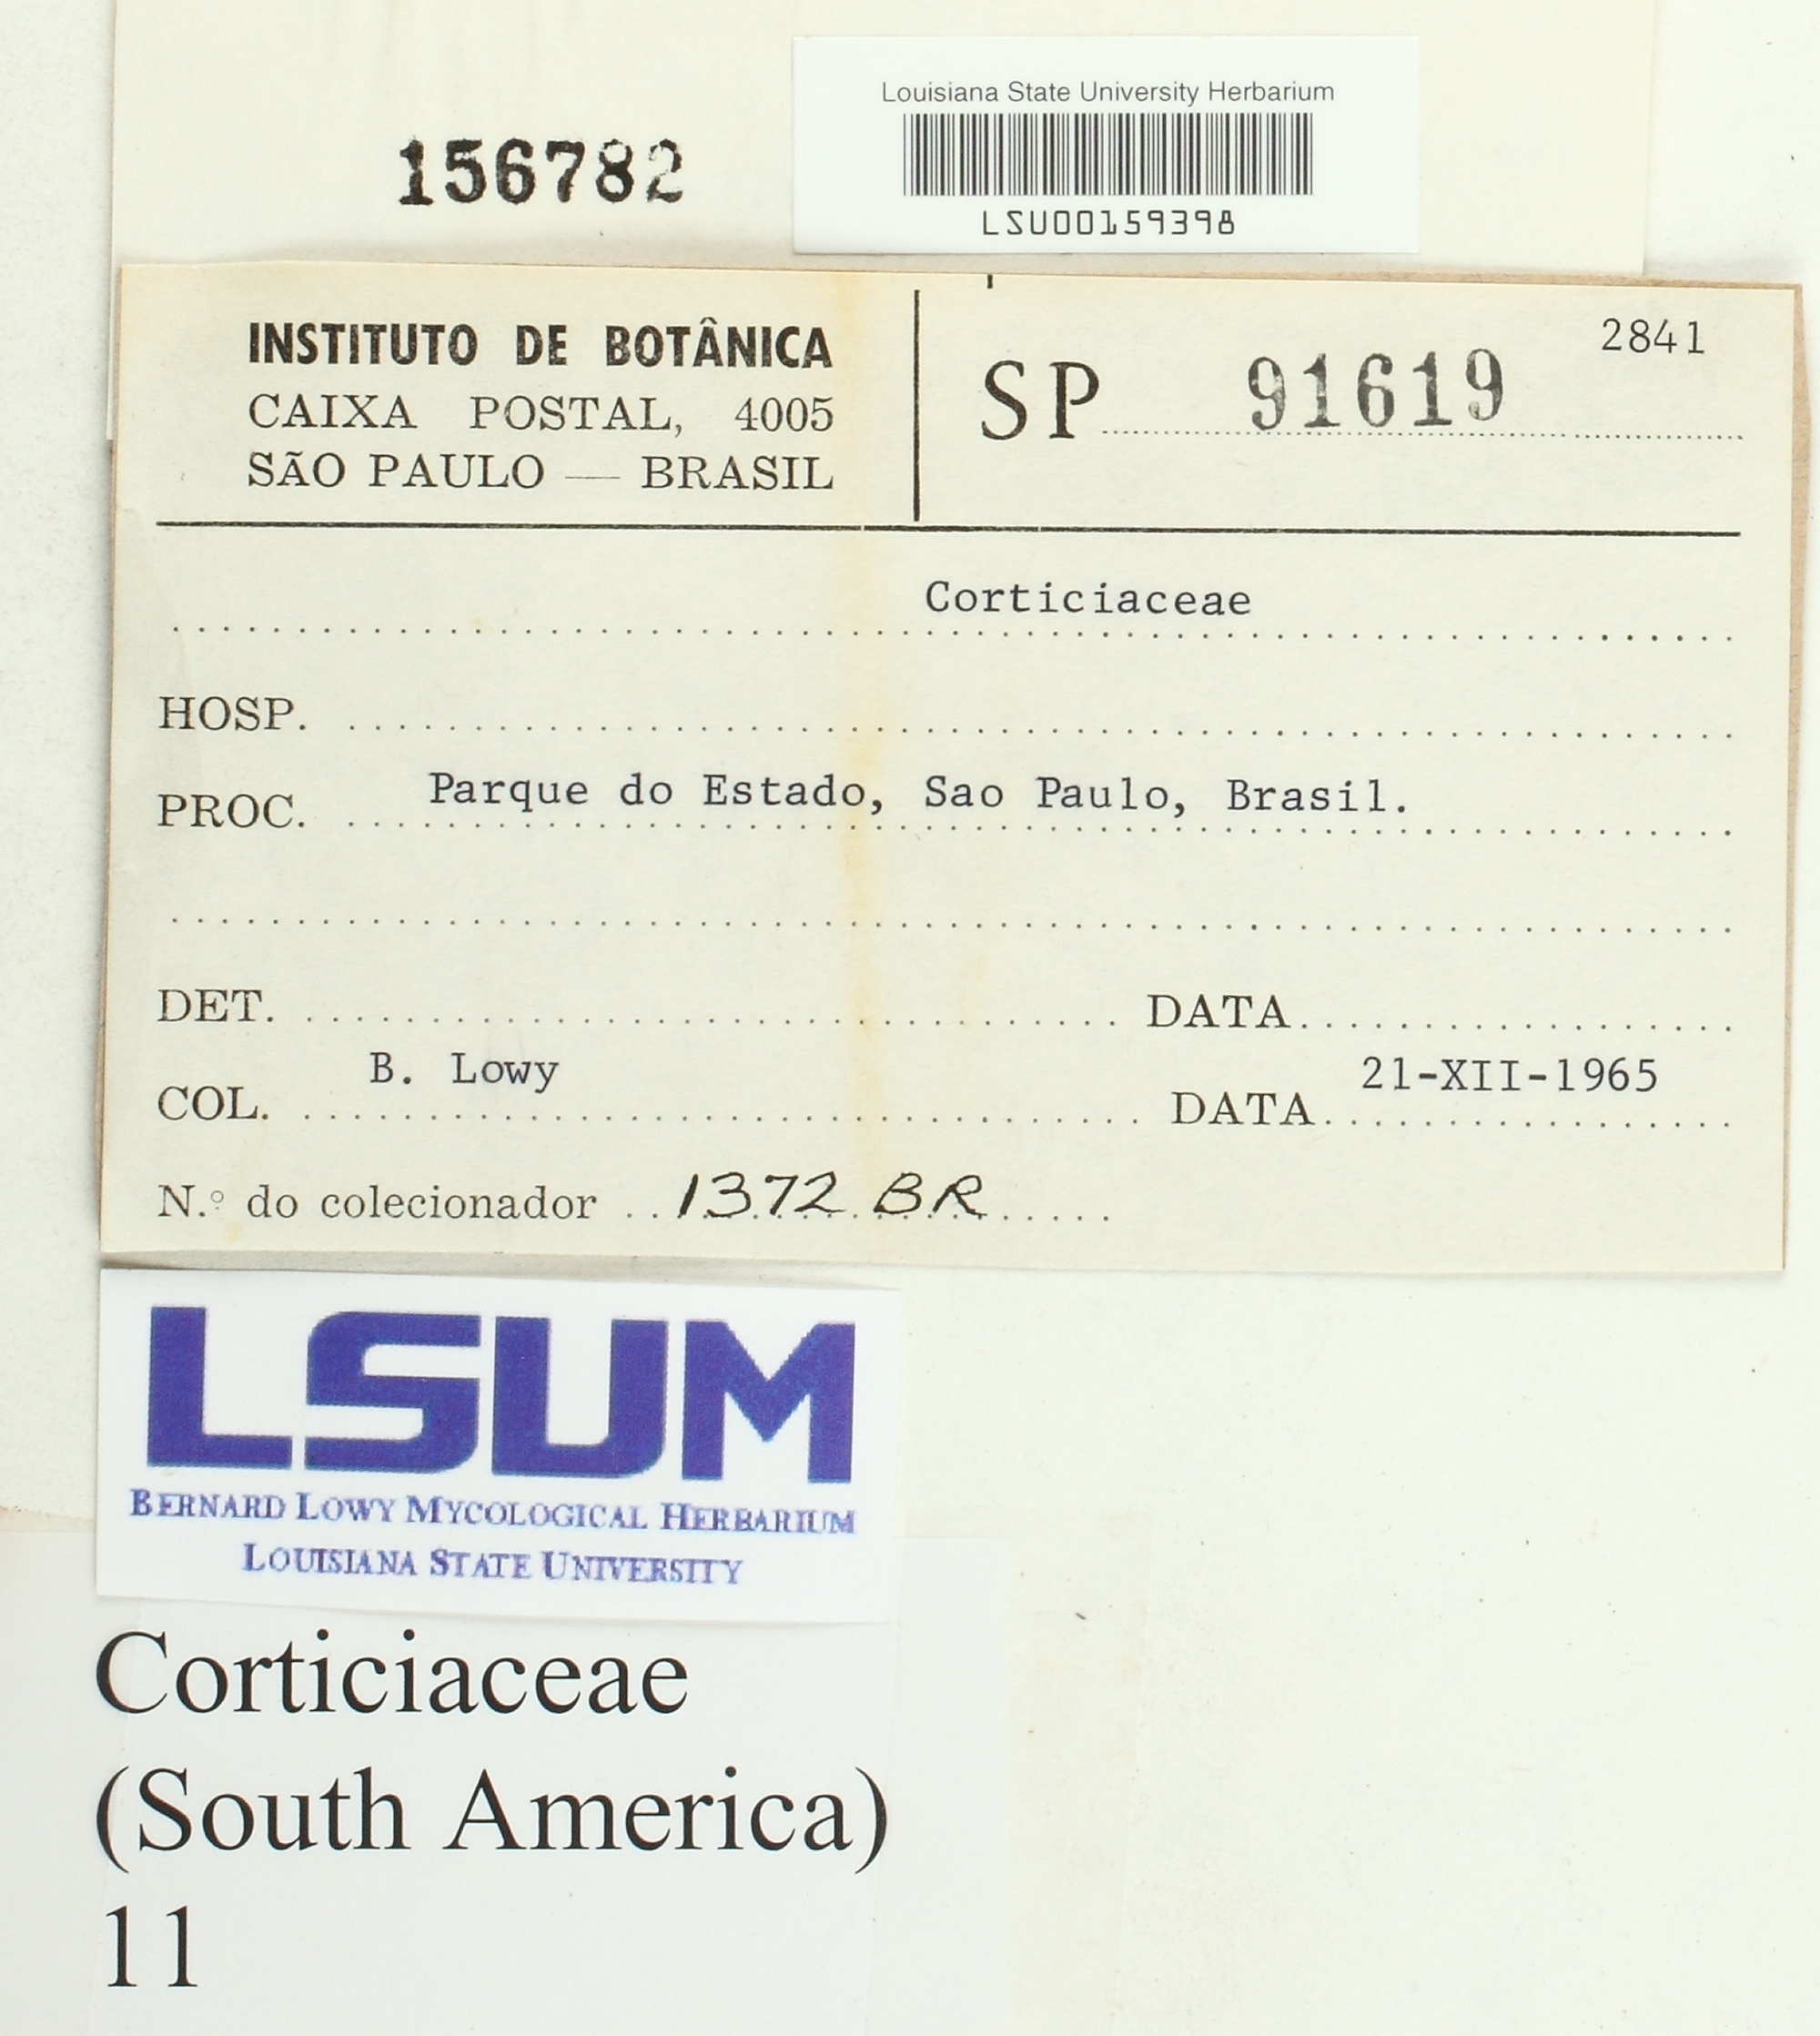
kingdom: Fungi
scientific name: Fungi
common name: Fungi
